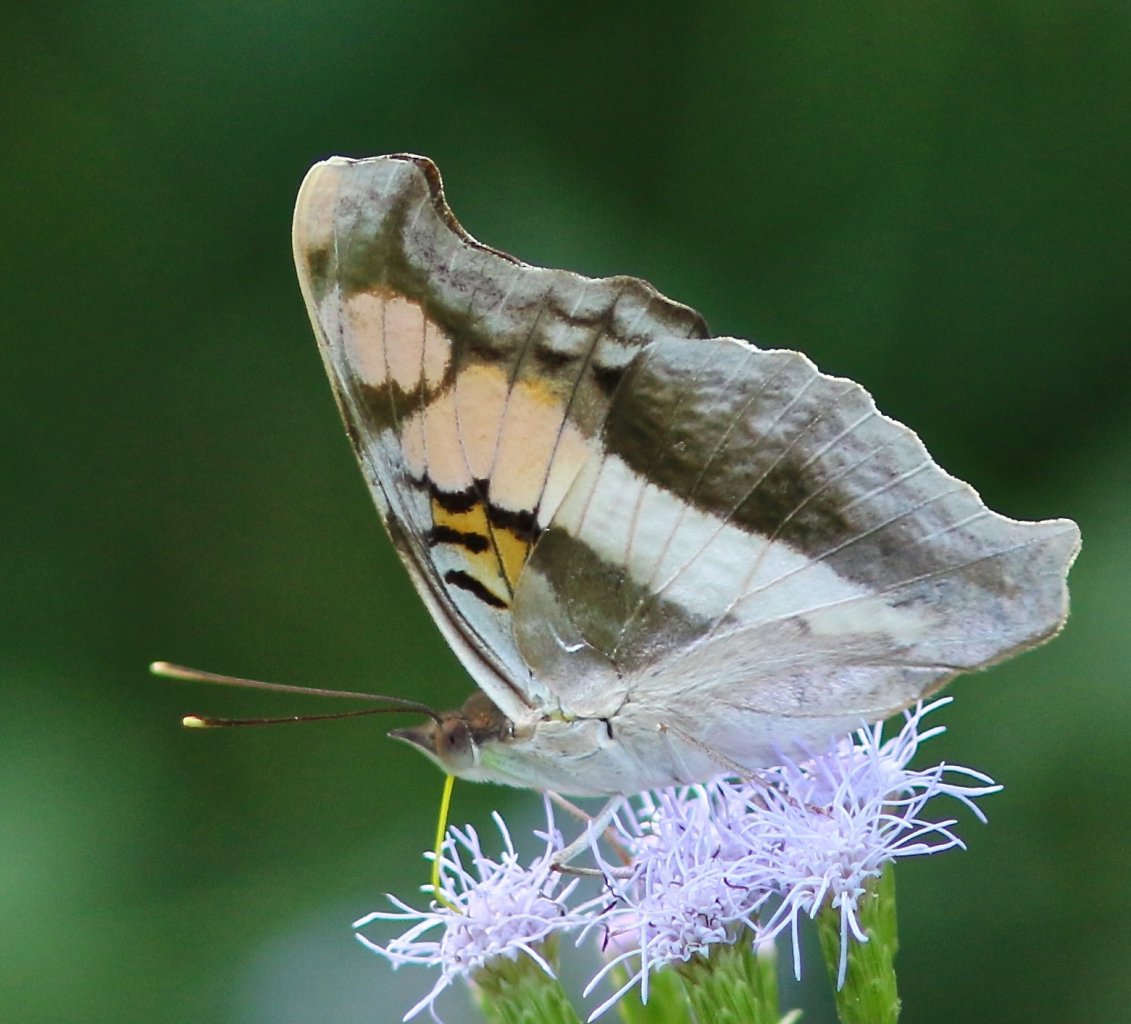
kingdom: Animalia
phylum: Arthropoda
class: Insecta
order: Lepidoptera
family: Nymphalidae
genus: Doxocopa
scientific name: Doxocopa laure
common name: Silver Emperor
